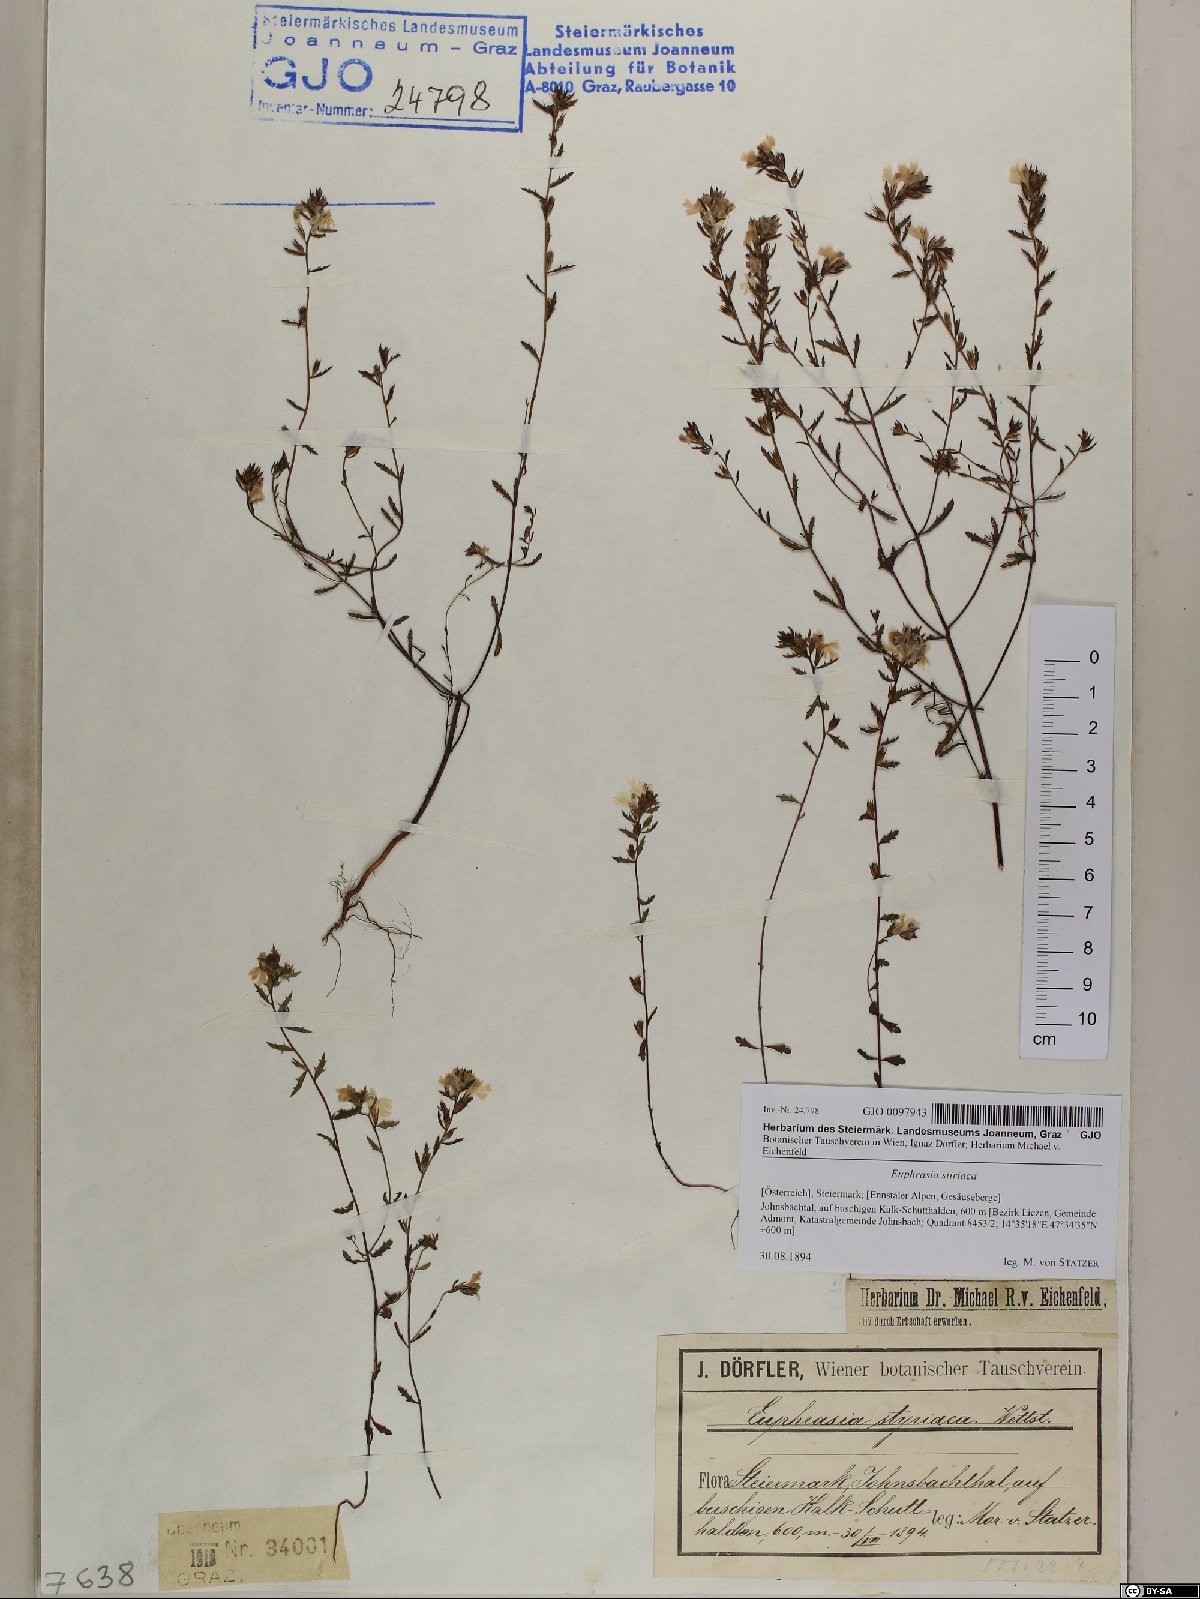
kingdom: Plantae
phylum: Tracheophyta
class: Magnoliopsida
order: Lamiales
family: Orobanchaceae
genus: Euphrasia
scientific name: Euphrasia cuspidata
